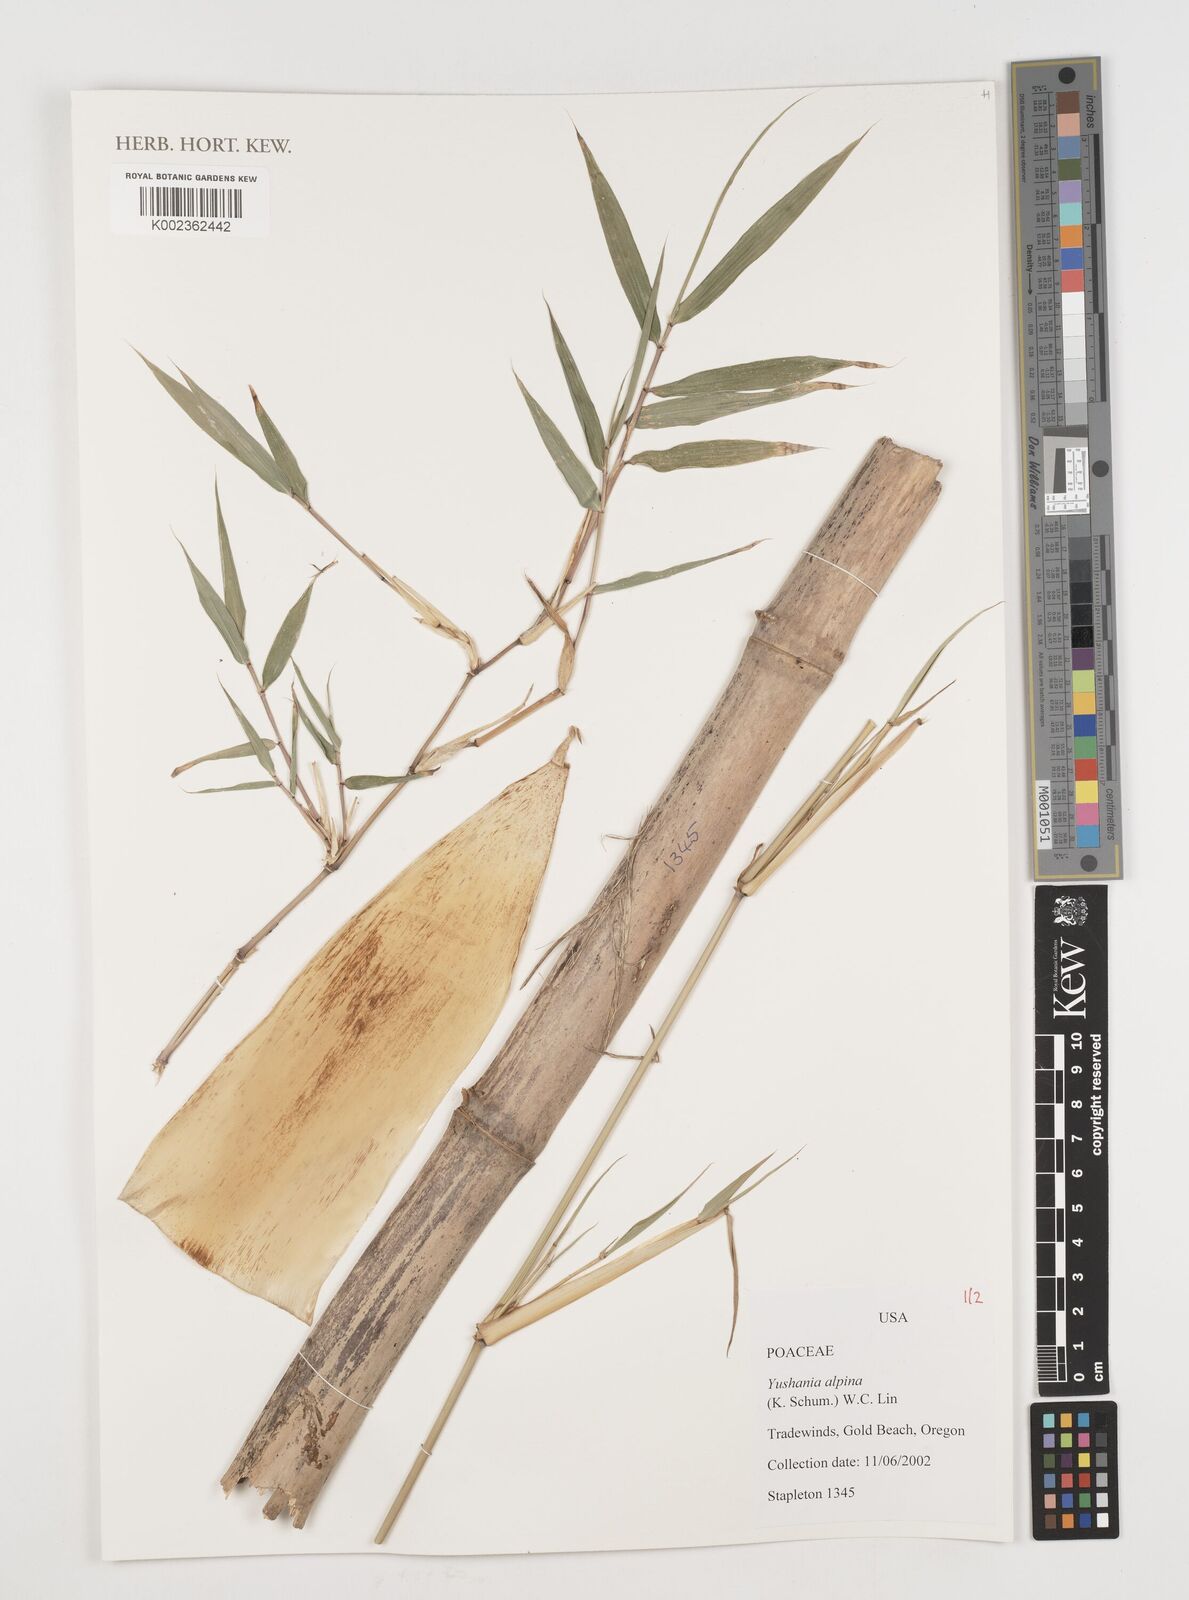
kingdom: Plantae
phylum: Tracheophyta
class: Liliopsida
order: Poales
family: Poaceae
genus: Oldeania
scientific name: Oldeania alpina
